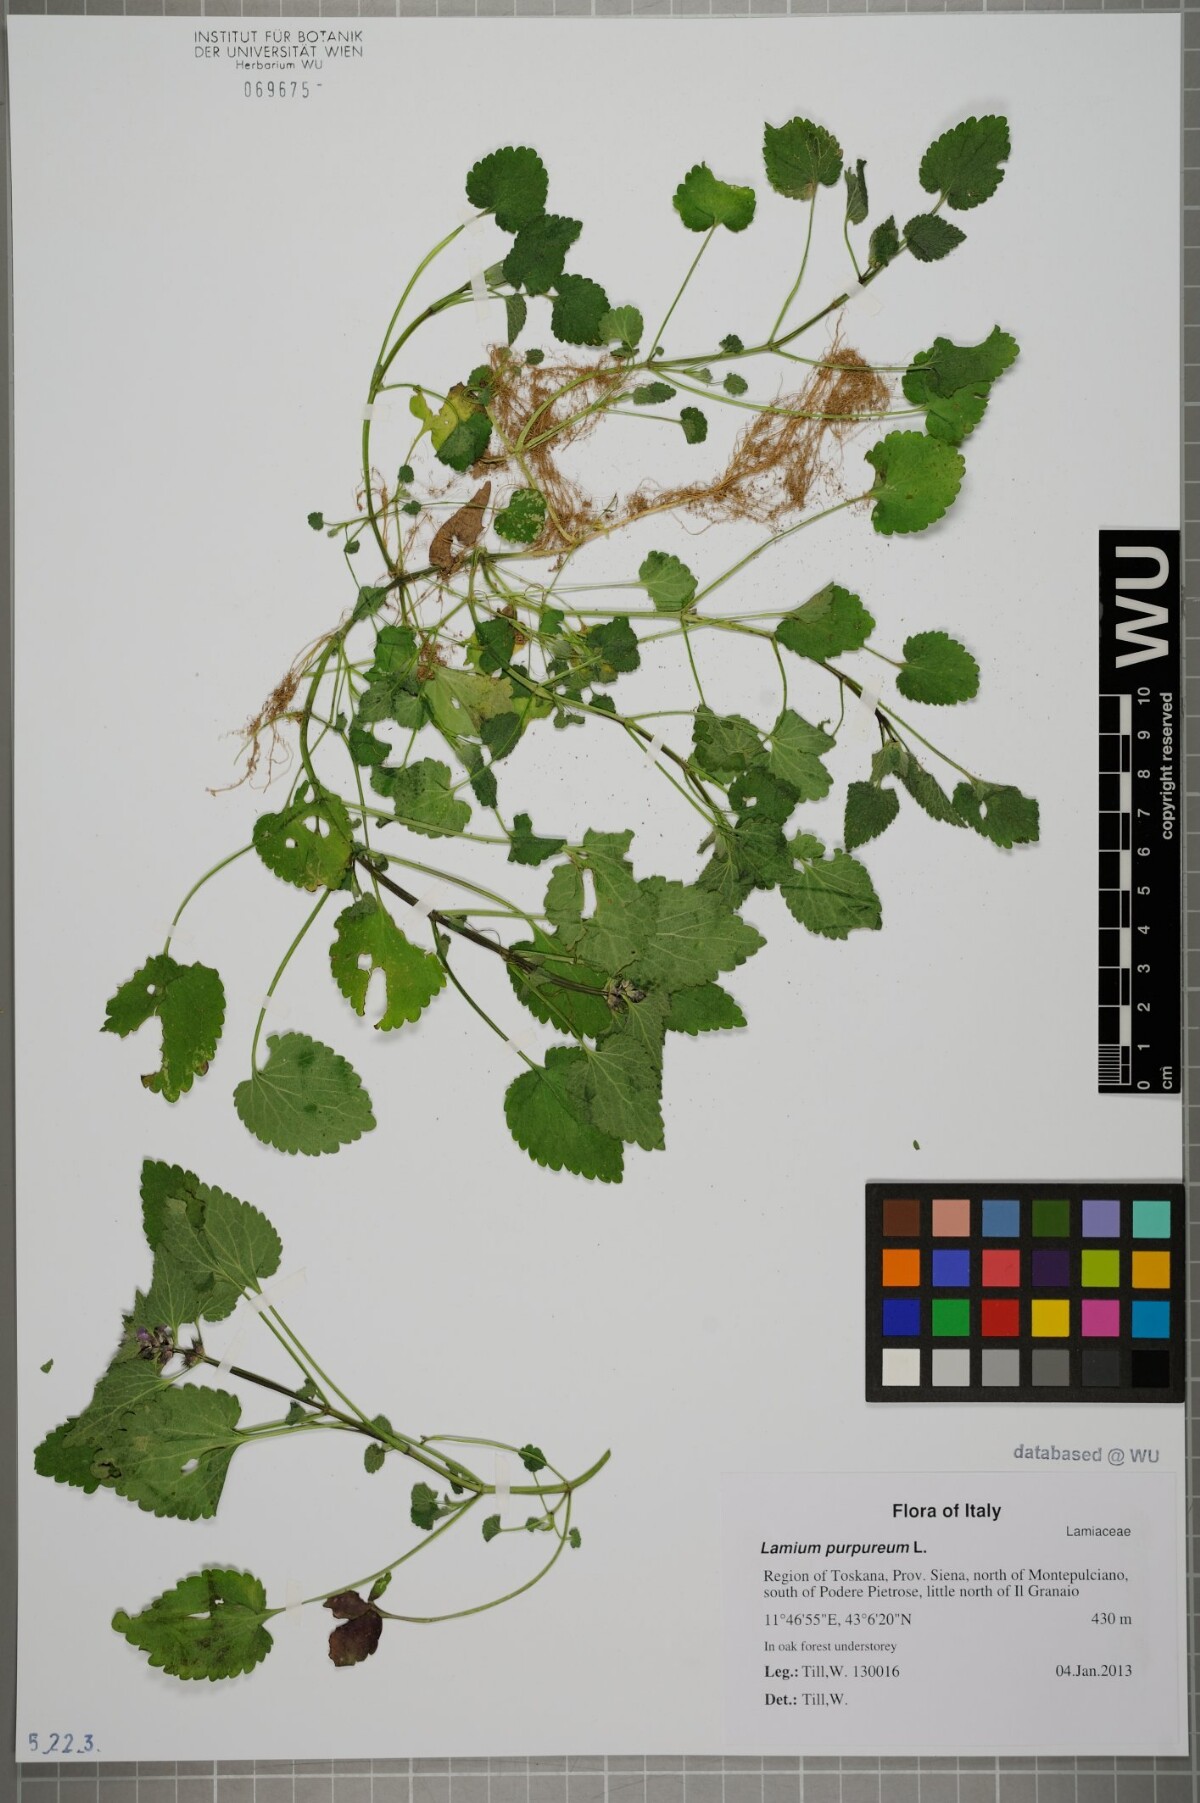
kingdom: Plantae
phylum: Tracheophyta
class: Magnoliopsida
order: Lamiales
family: Lamiaceae
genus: Lamium
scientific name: Lamium purpureum
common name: Red dead-nettle
